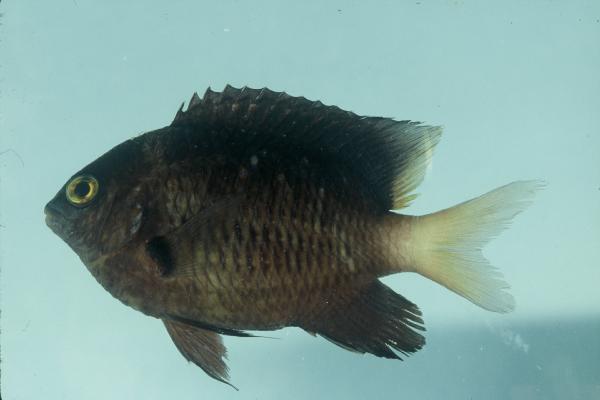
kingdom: Animalia
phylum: Chordata
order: Perciformes
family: Pomacentridae
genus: Plectroglyphidodon
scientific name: Plectroglyphidodon lacrymatus
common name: Jewel damsel
